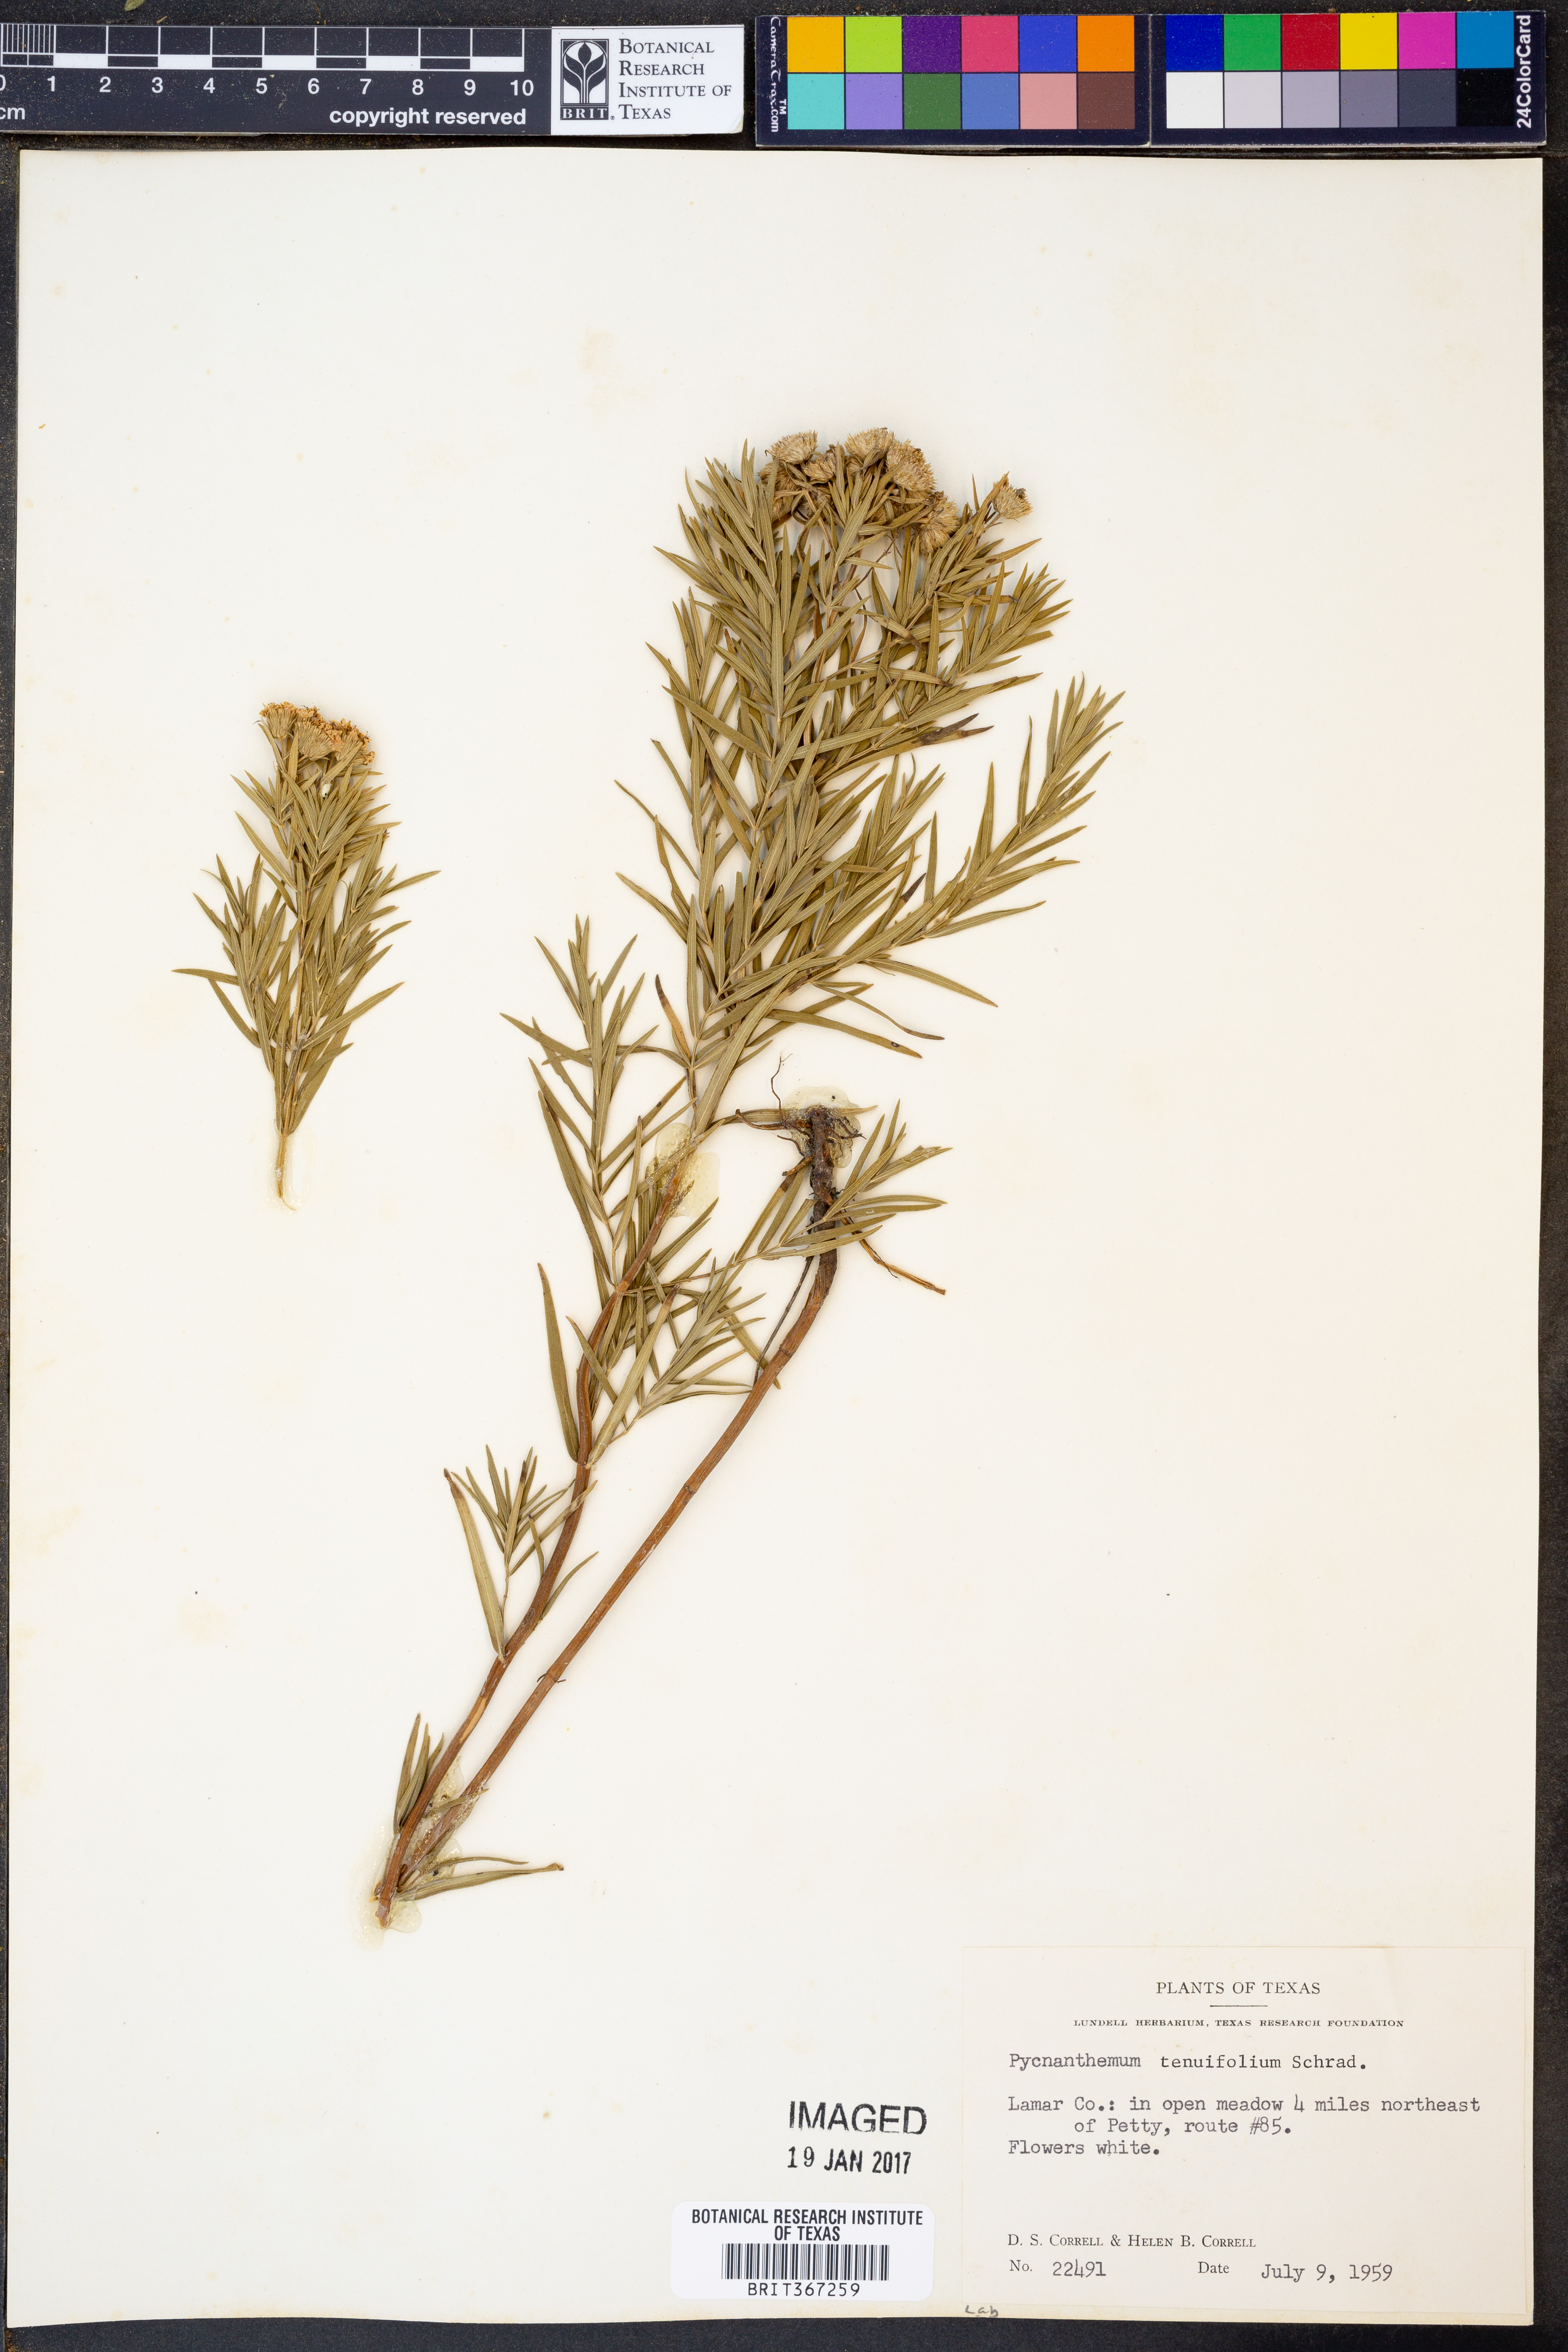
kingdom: Plantae
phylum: Tracheophyta
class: Magnoliopsida
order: Lamiales
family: Lamiaceae
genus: Pycnanthemum
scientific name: Pycnanthemum tenuifolium
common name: Narrow-leaf mountain-mint
